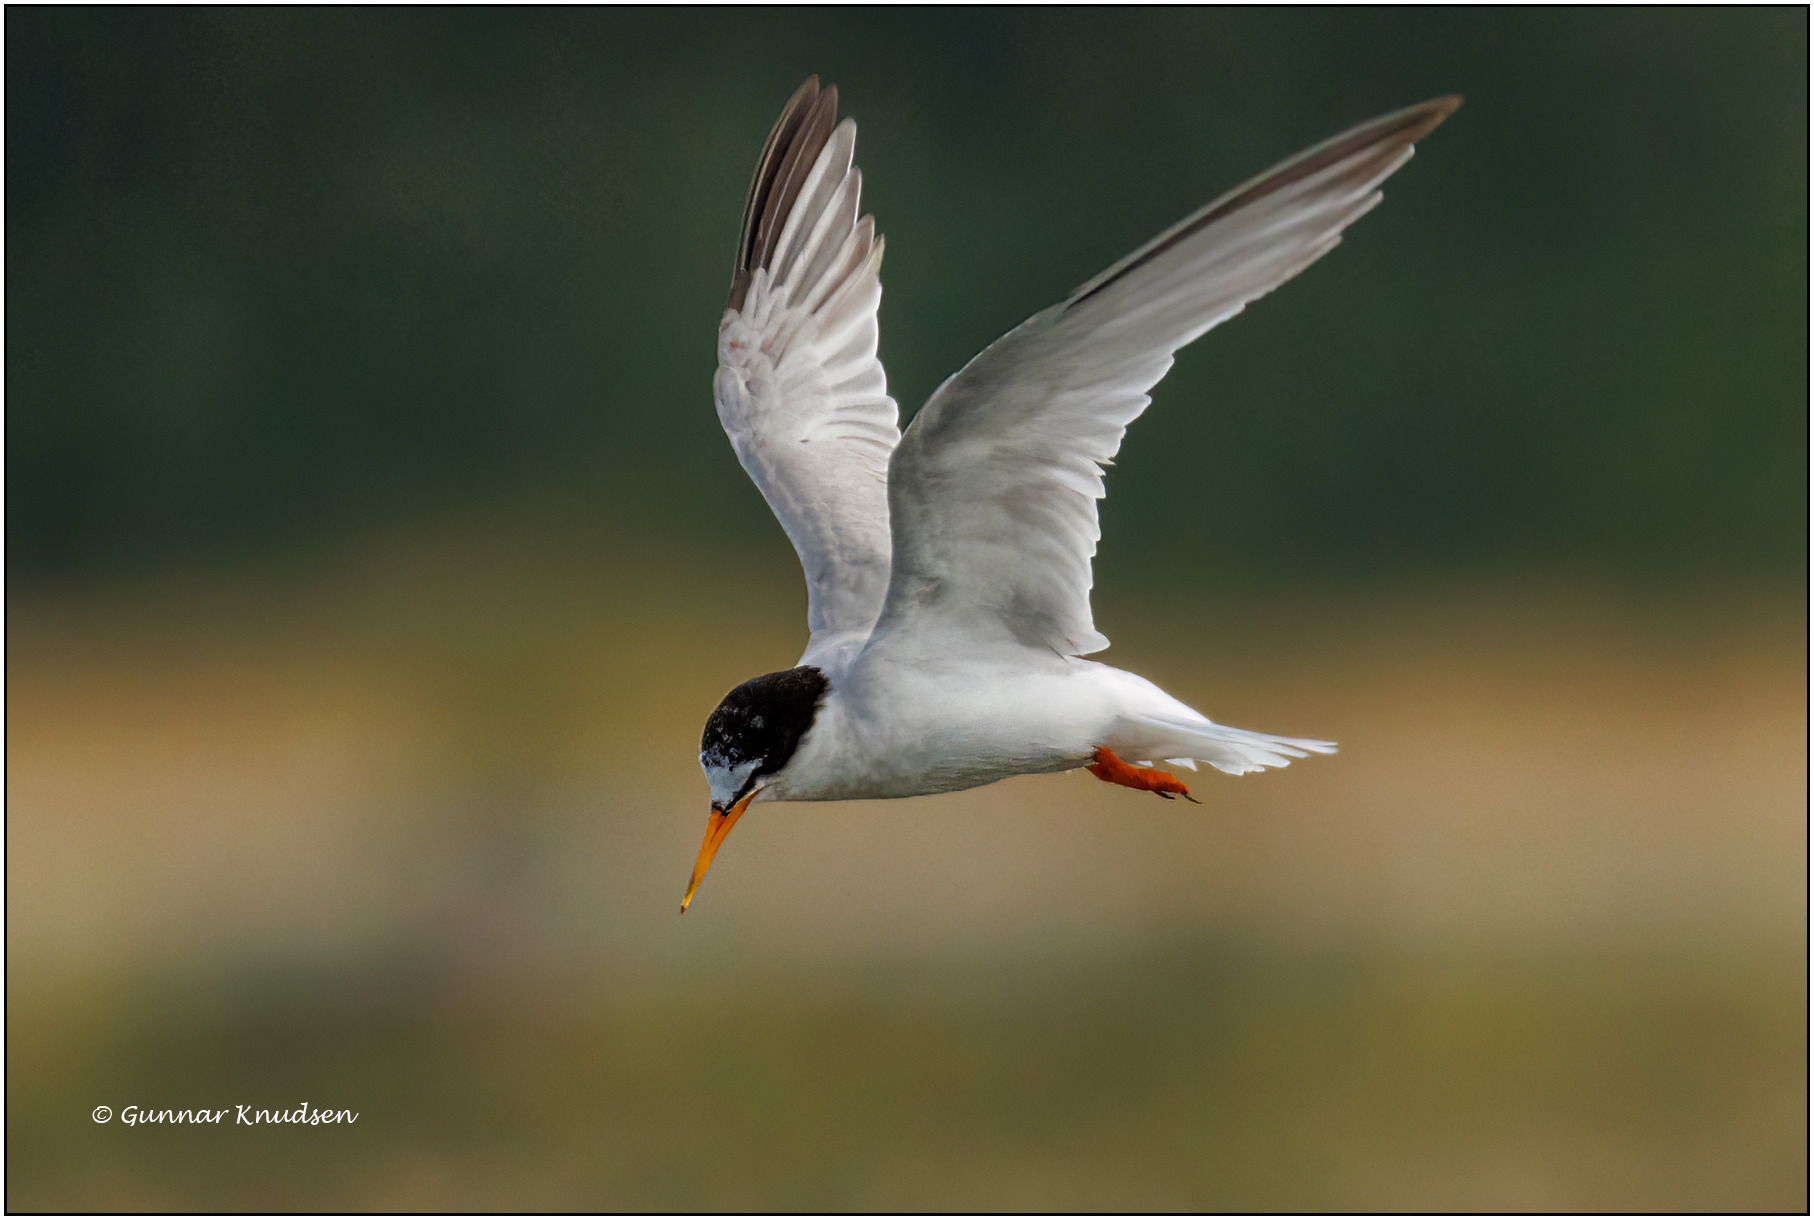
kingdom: Animalia
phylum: Chordata
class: Aves
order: Charadriiformes
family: Laridae
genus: Sternula
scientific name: Sternula albifrons
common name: Dværgterne
